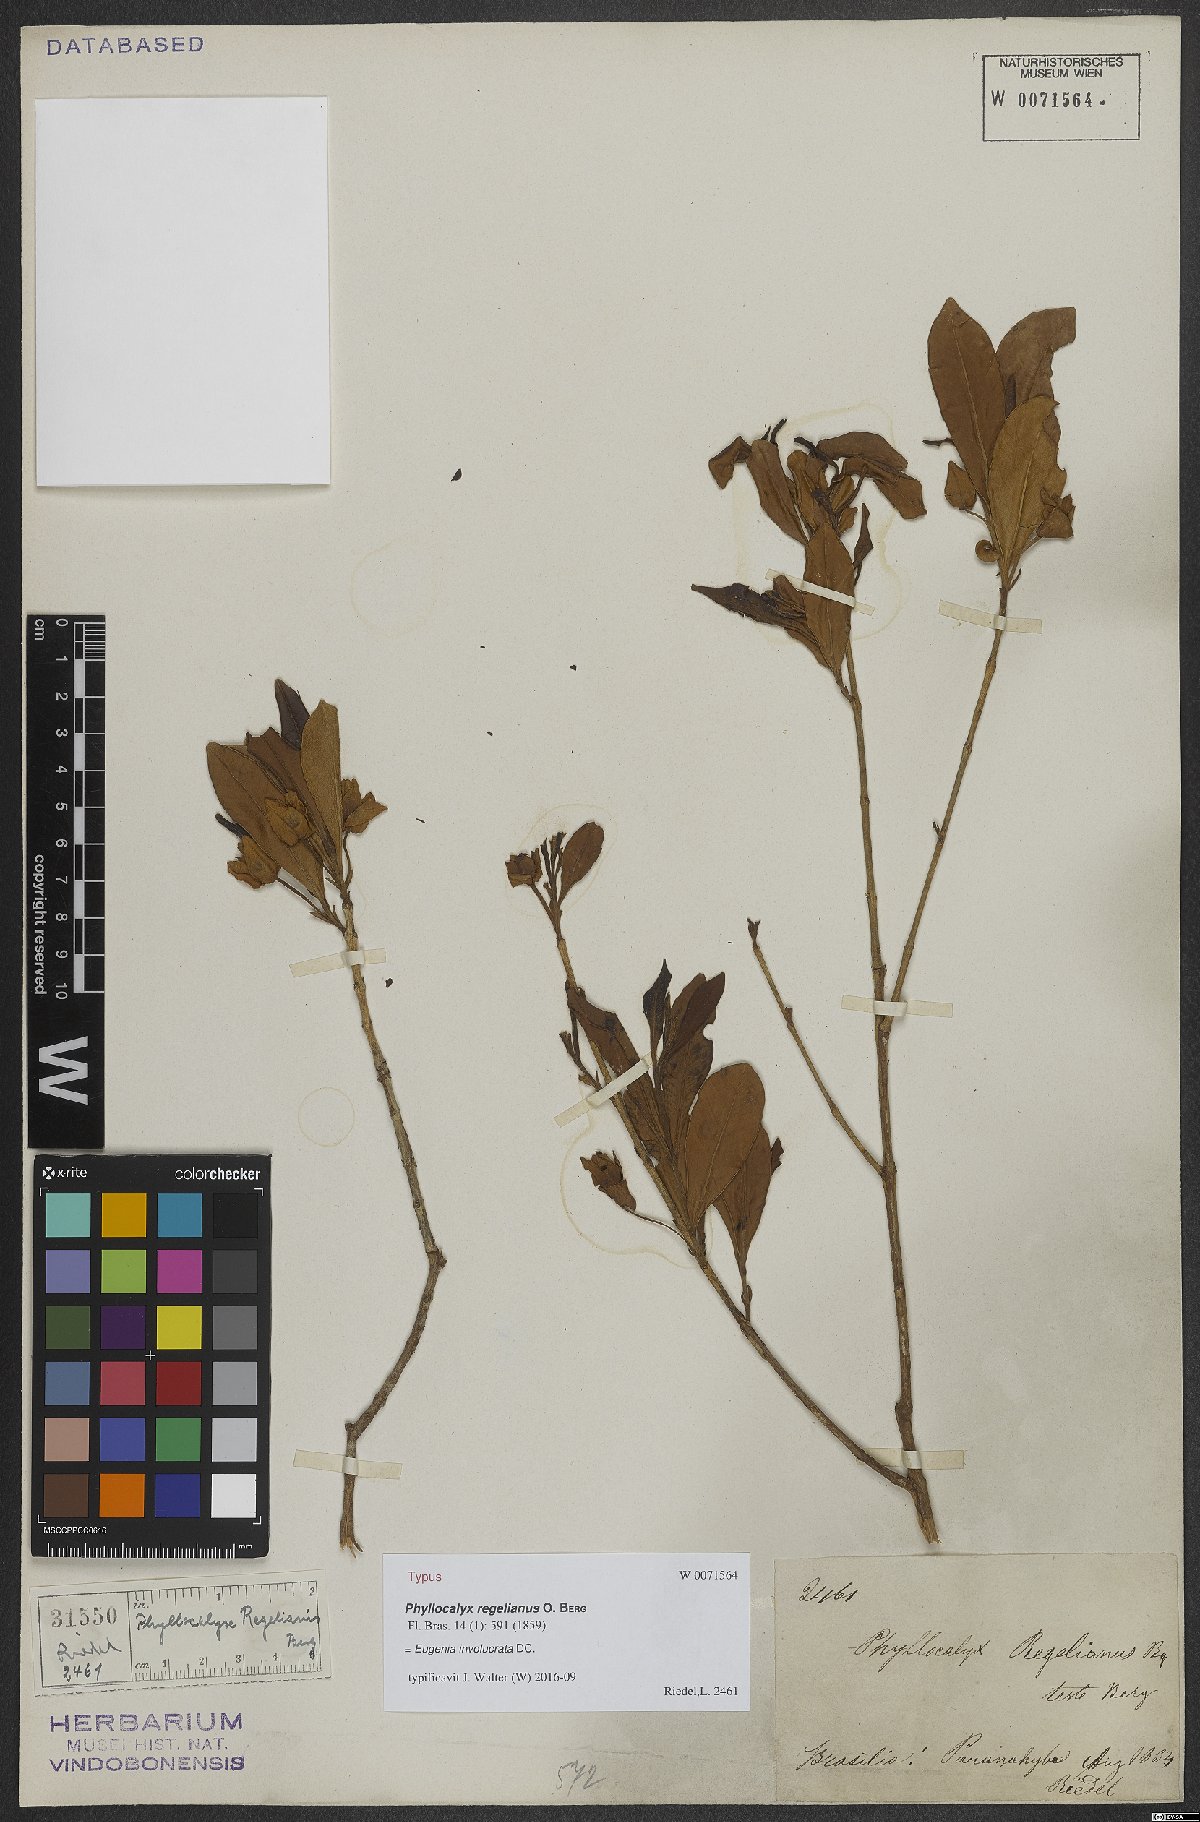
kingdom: Plantae
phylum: Tracheophyta
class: Magnoliopsida
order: Myrtales
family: Myrtaceae
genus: Eugenia
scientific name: Eugenia involucrata
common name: Cherry-of-the-rio grande
